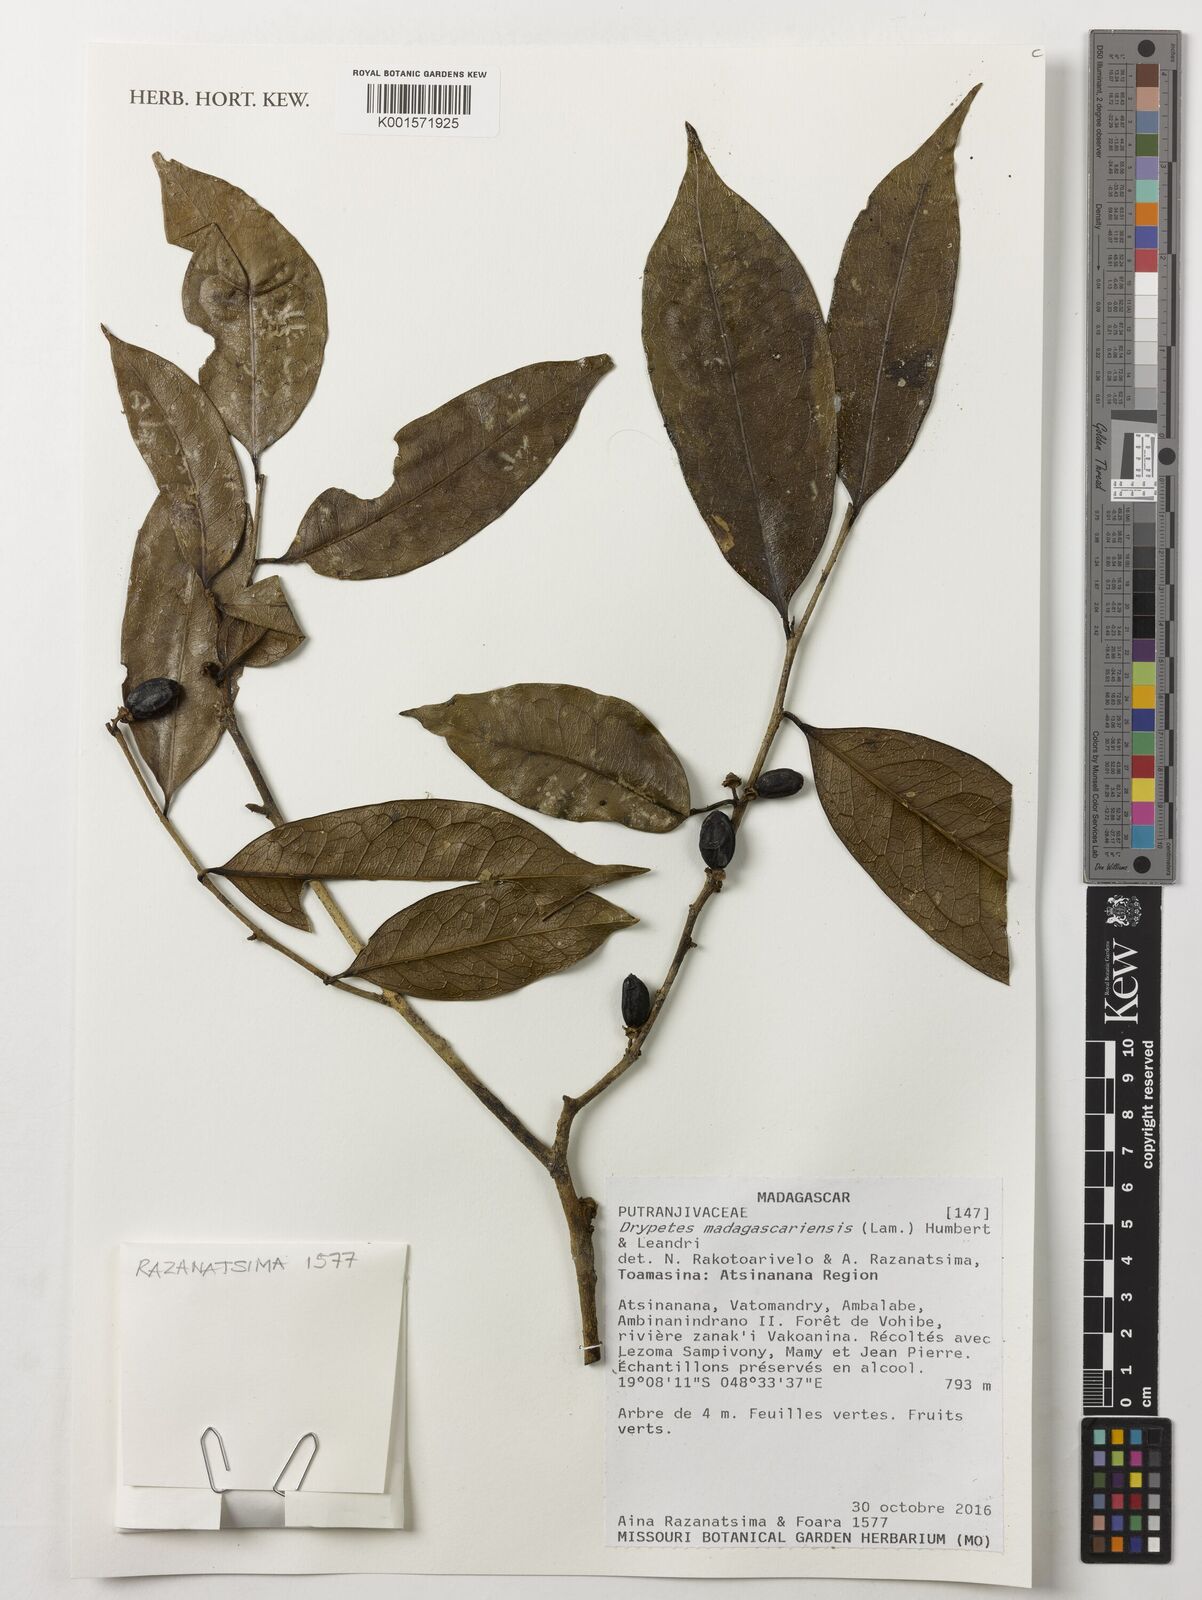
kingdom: Plantae
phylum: Tracheophyta
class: Magnoliopsida
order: Malpighiales
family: Putranjivaceae
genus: Drypetes
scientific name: Drypetes madagascariensis
